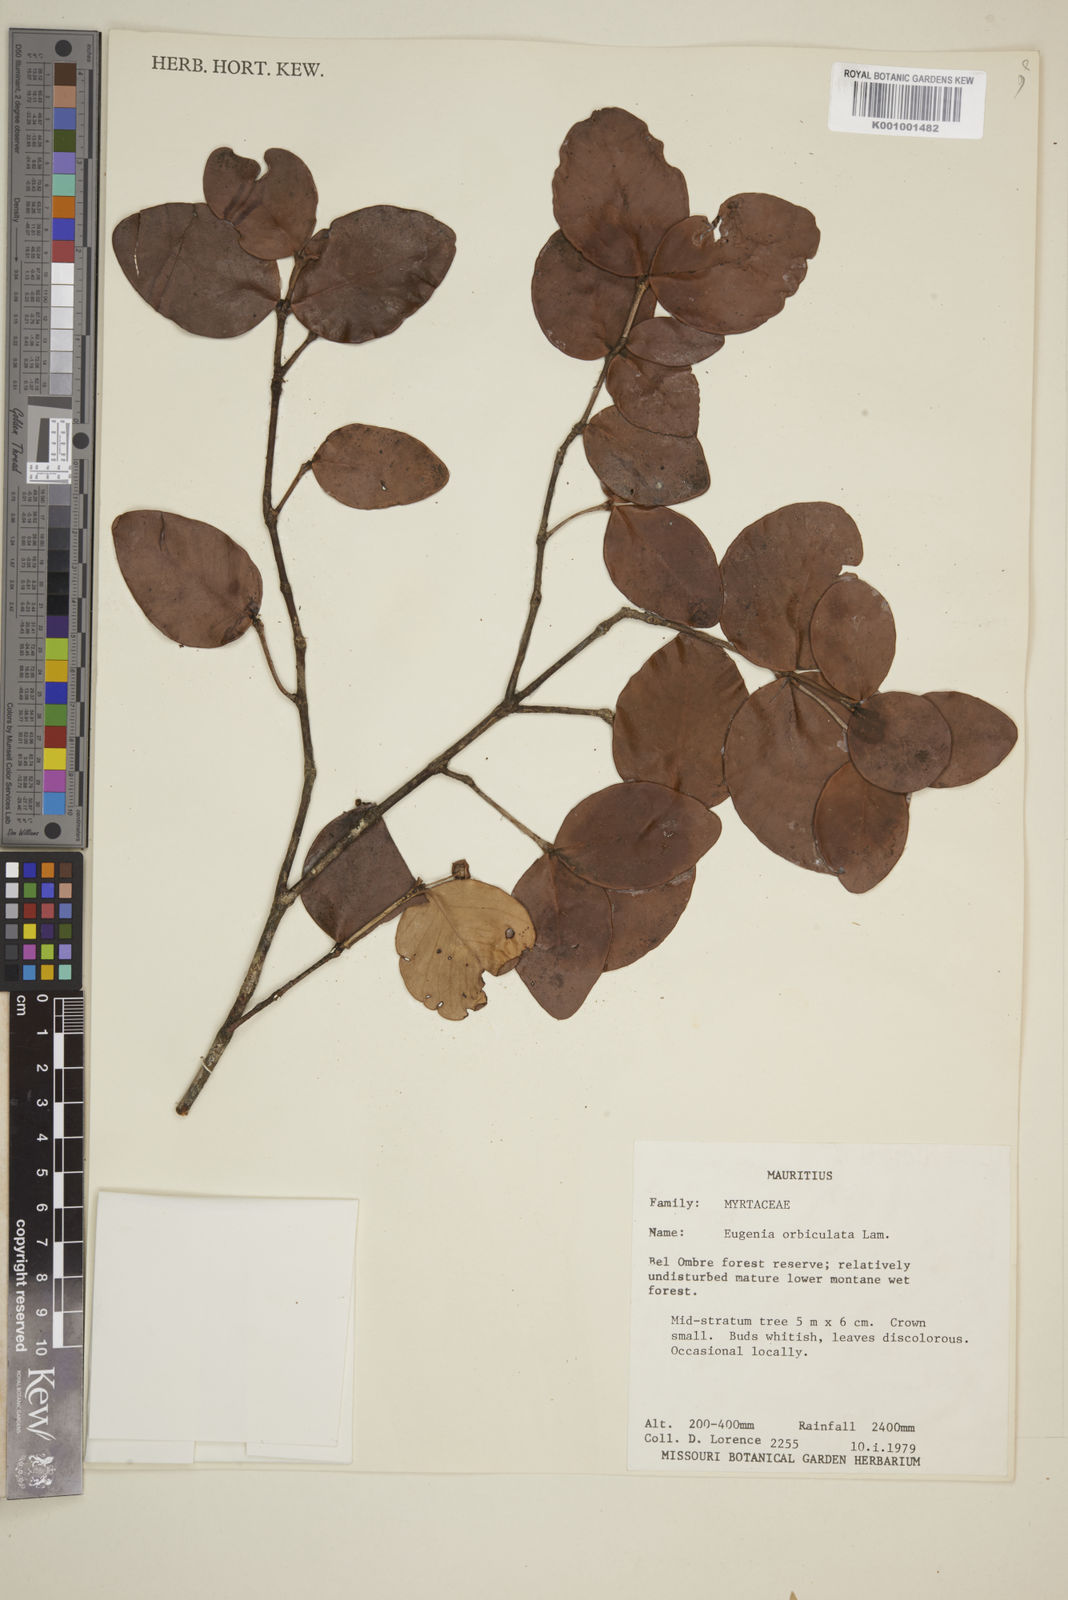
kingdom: Plantae
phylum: Tracheophyta
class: Magnoliopsida
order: Myrtales
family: Myrtaceae
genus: Eugenia
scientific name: Eugenia orbiculata
